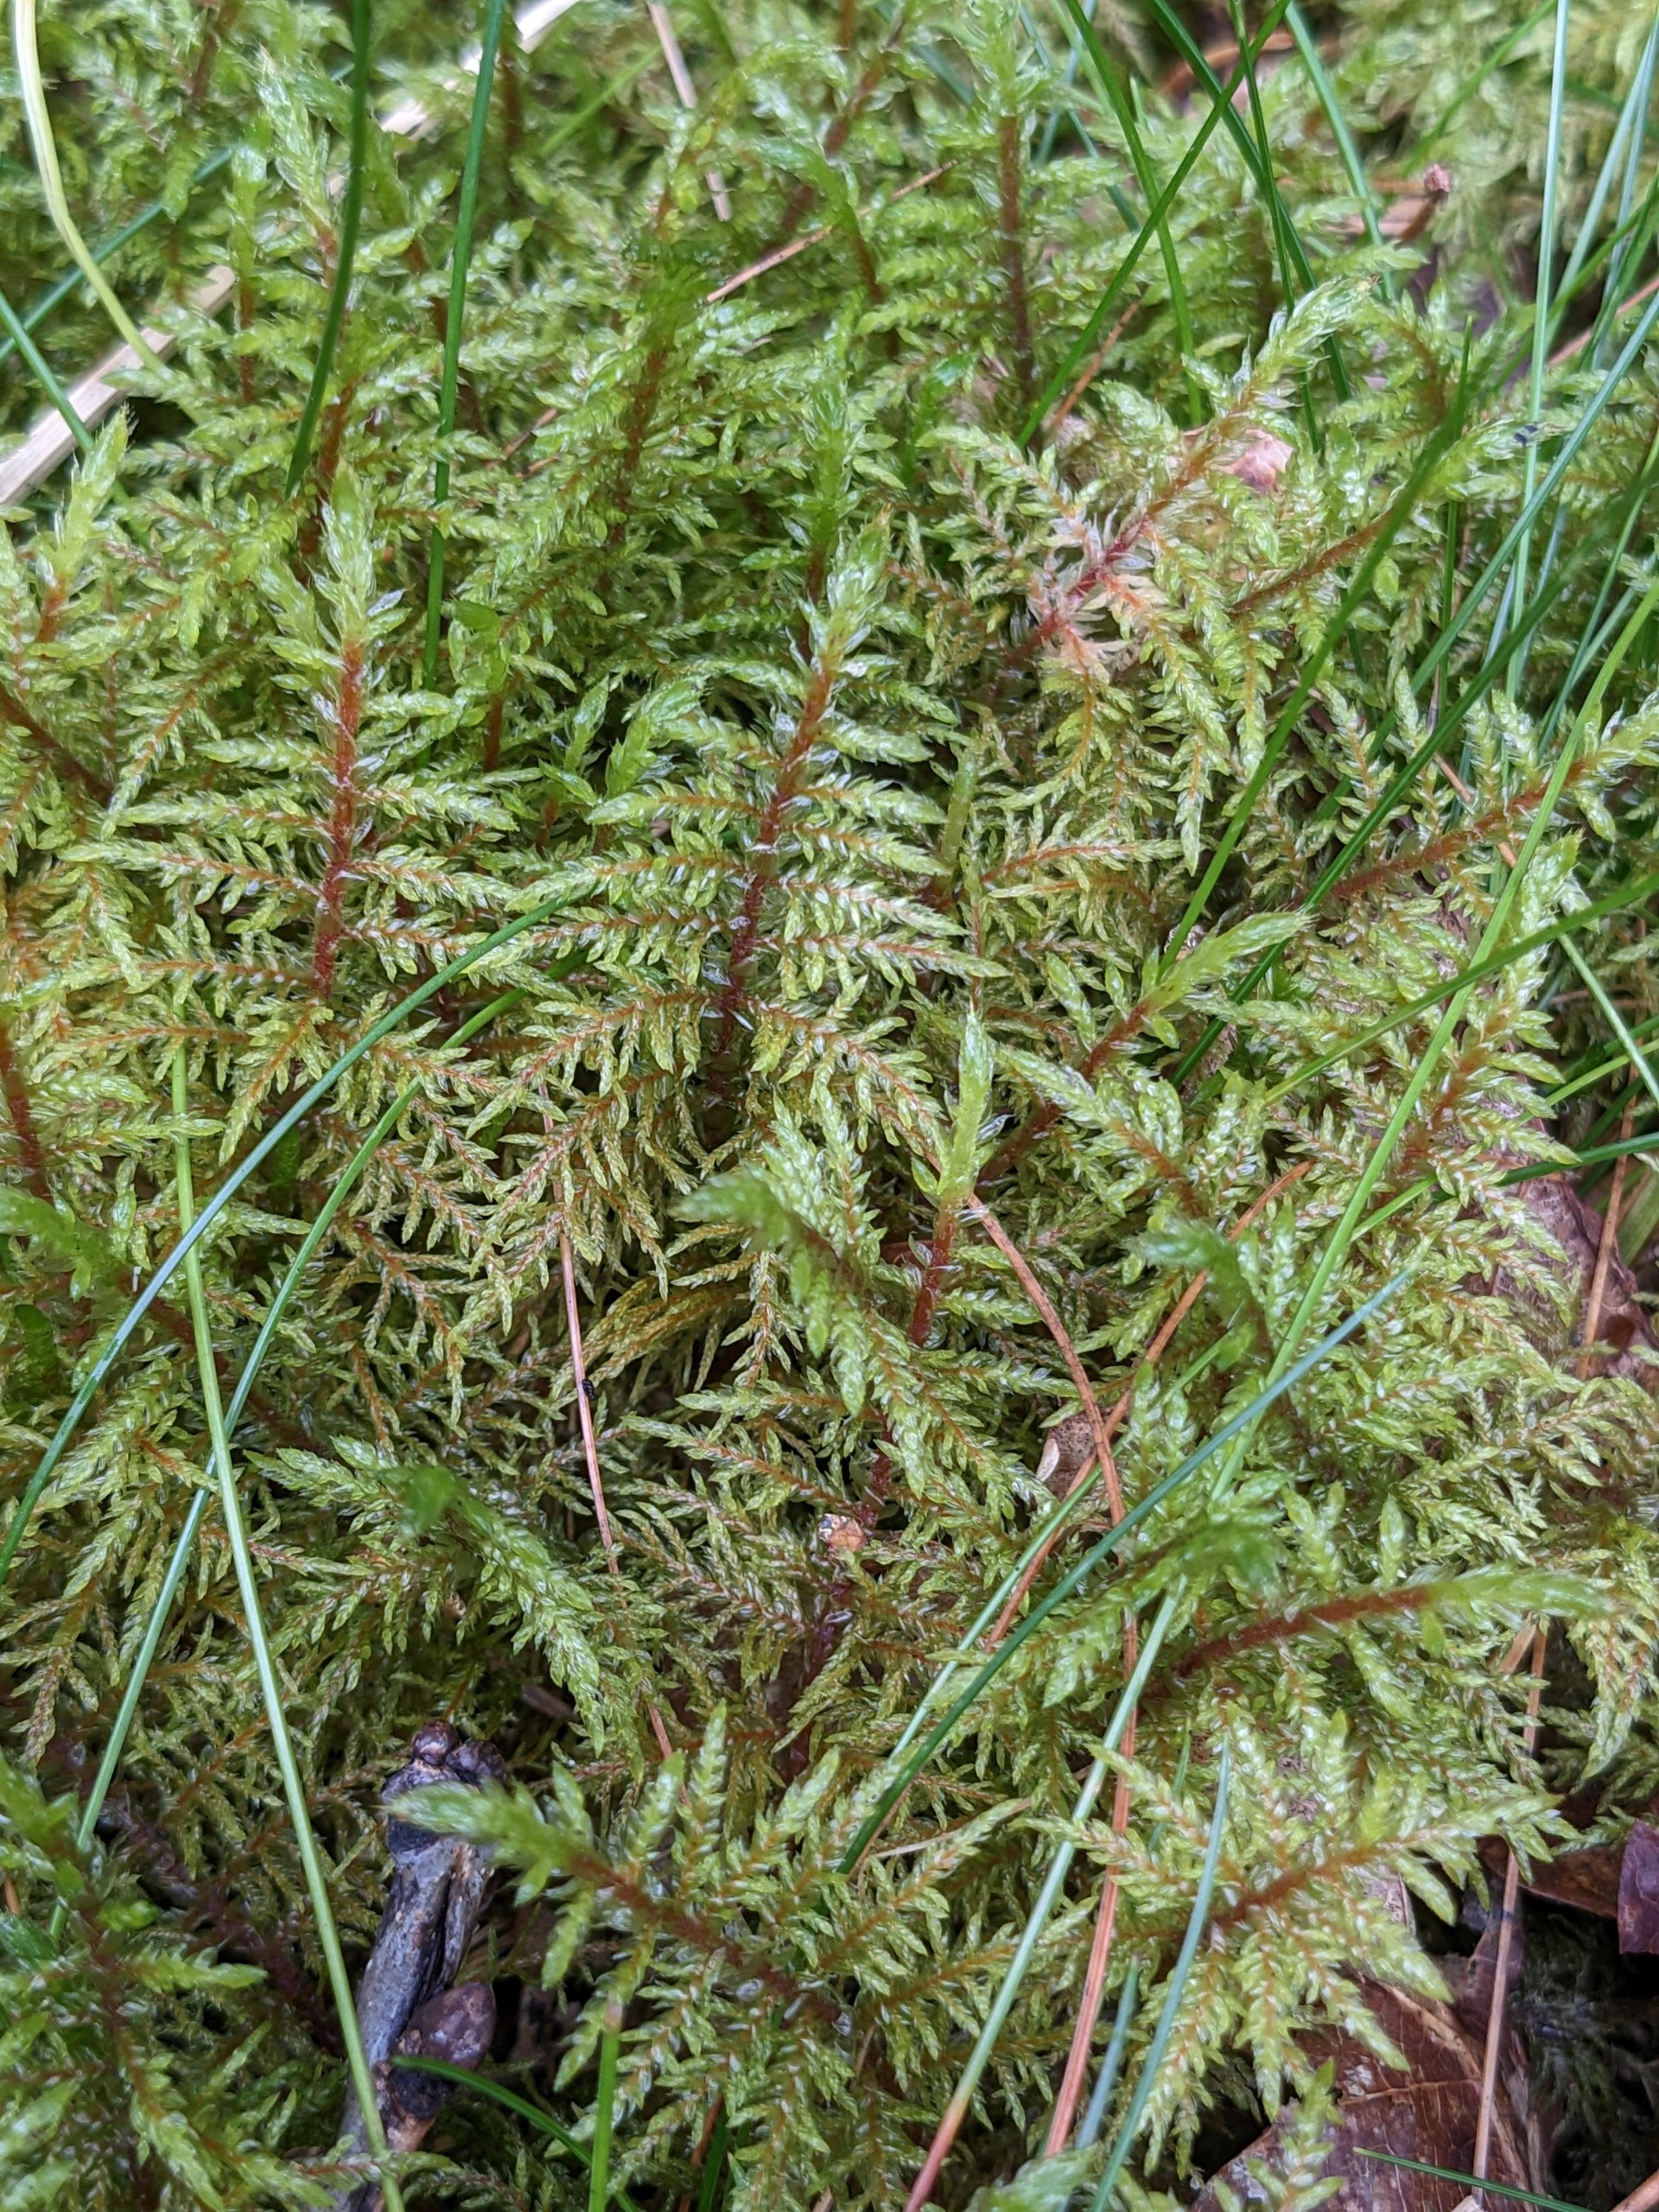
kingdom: Plantae
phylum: Bryophyta
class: Bryopsida
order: Hypnales
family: Hylocomiaceae
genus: Hylocomium
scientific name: Hylocomium splendens
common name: Almindelig etagemos
